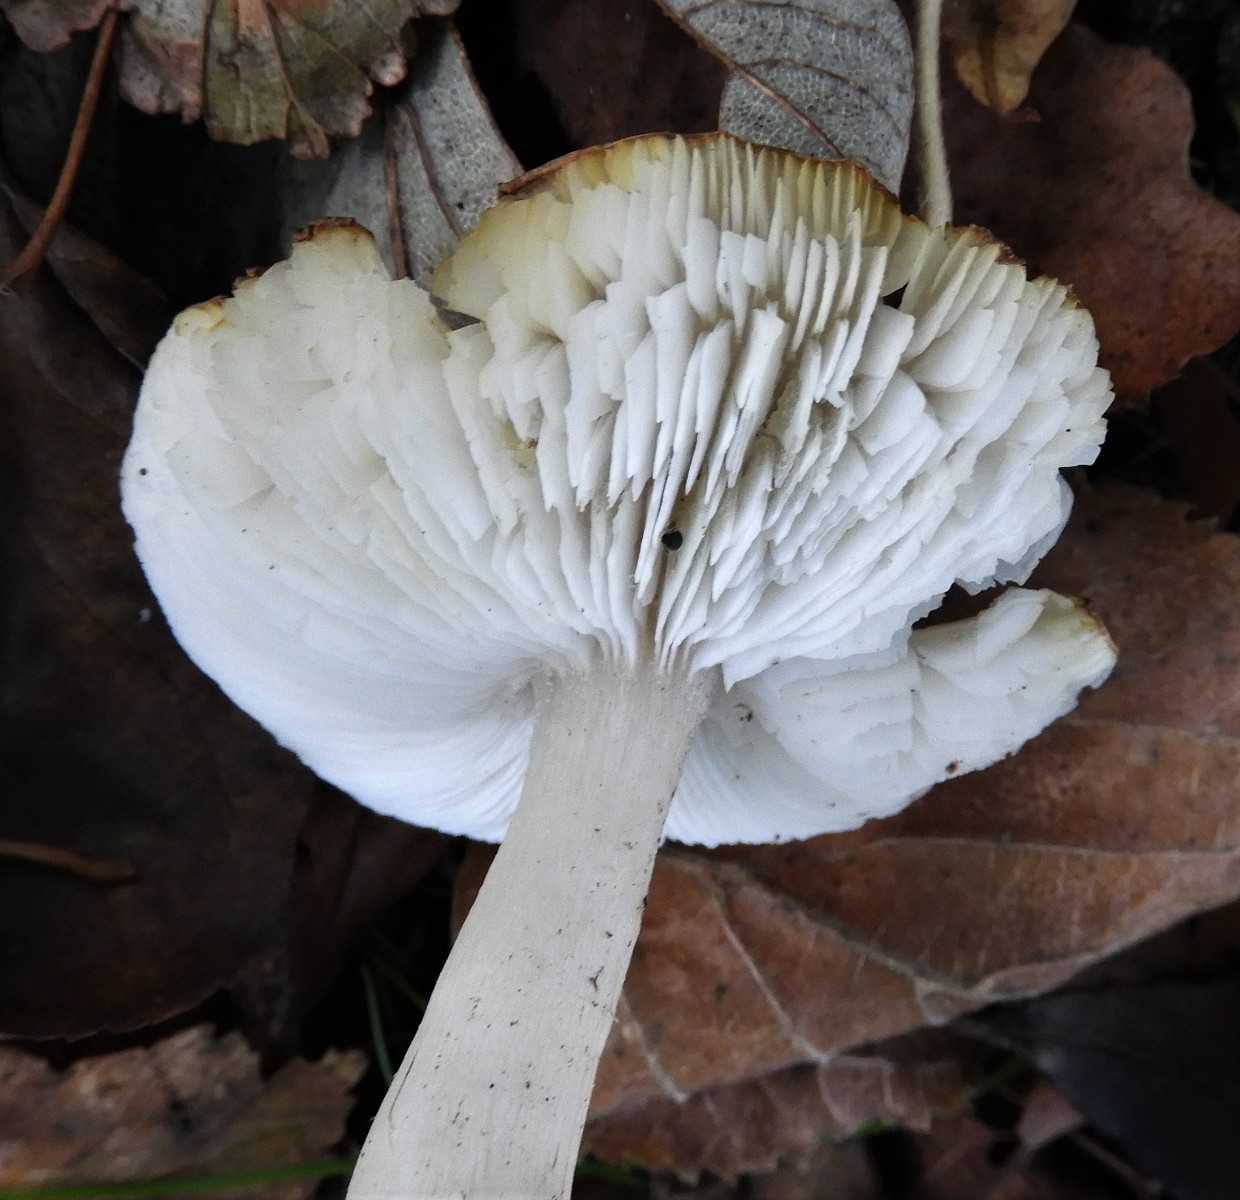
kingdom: Fungi
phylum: Basidiomycota
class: Agaricomycetes
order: Agaricales
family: Tricholomataceae
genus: Tricholoma
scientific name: Tricholoma scalpturatum
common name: gulplettet ridderhat
